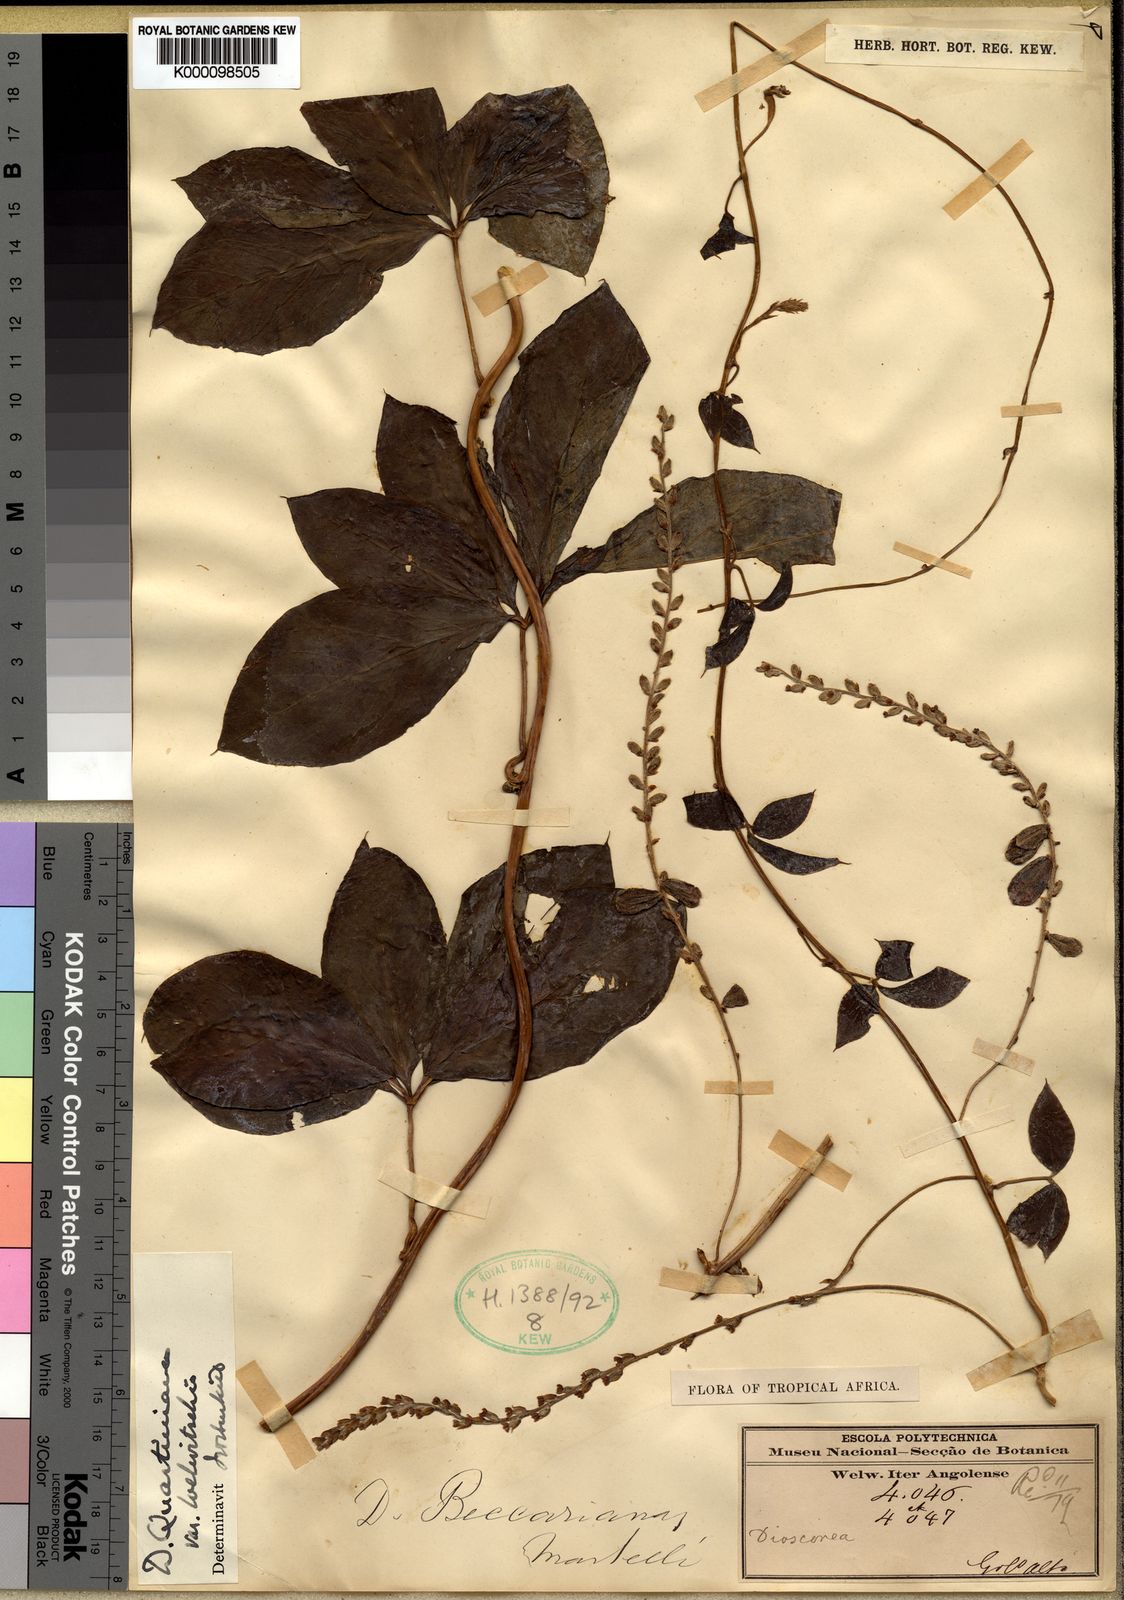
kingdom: Plantae
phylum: Tracheophyta
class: Liliopsida
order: Dioscoreales
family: Dioscoreaceae
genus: Dioscorea
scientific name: Dioscorea quartiniana
